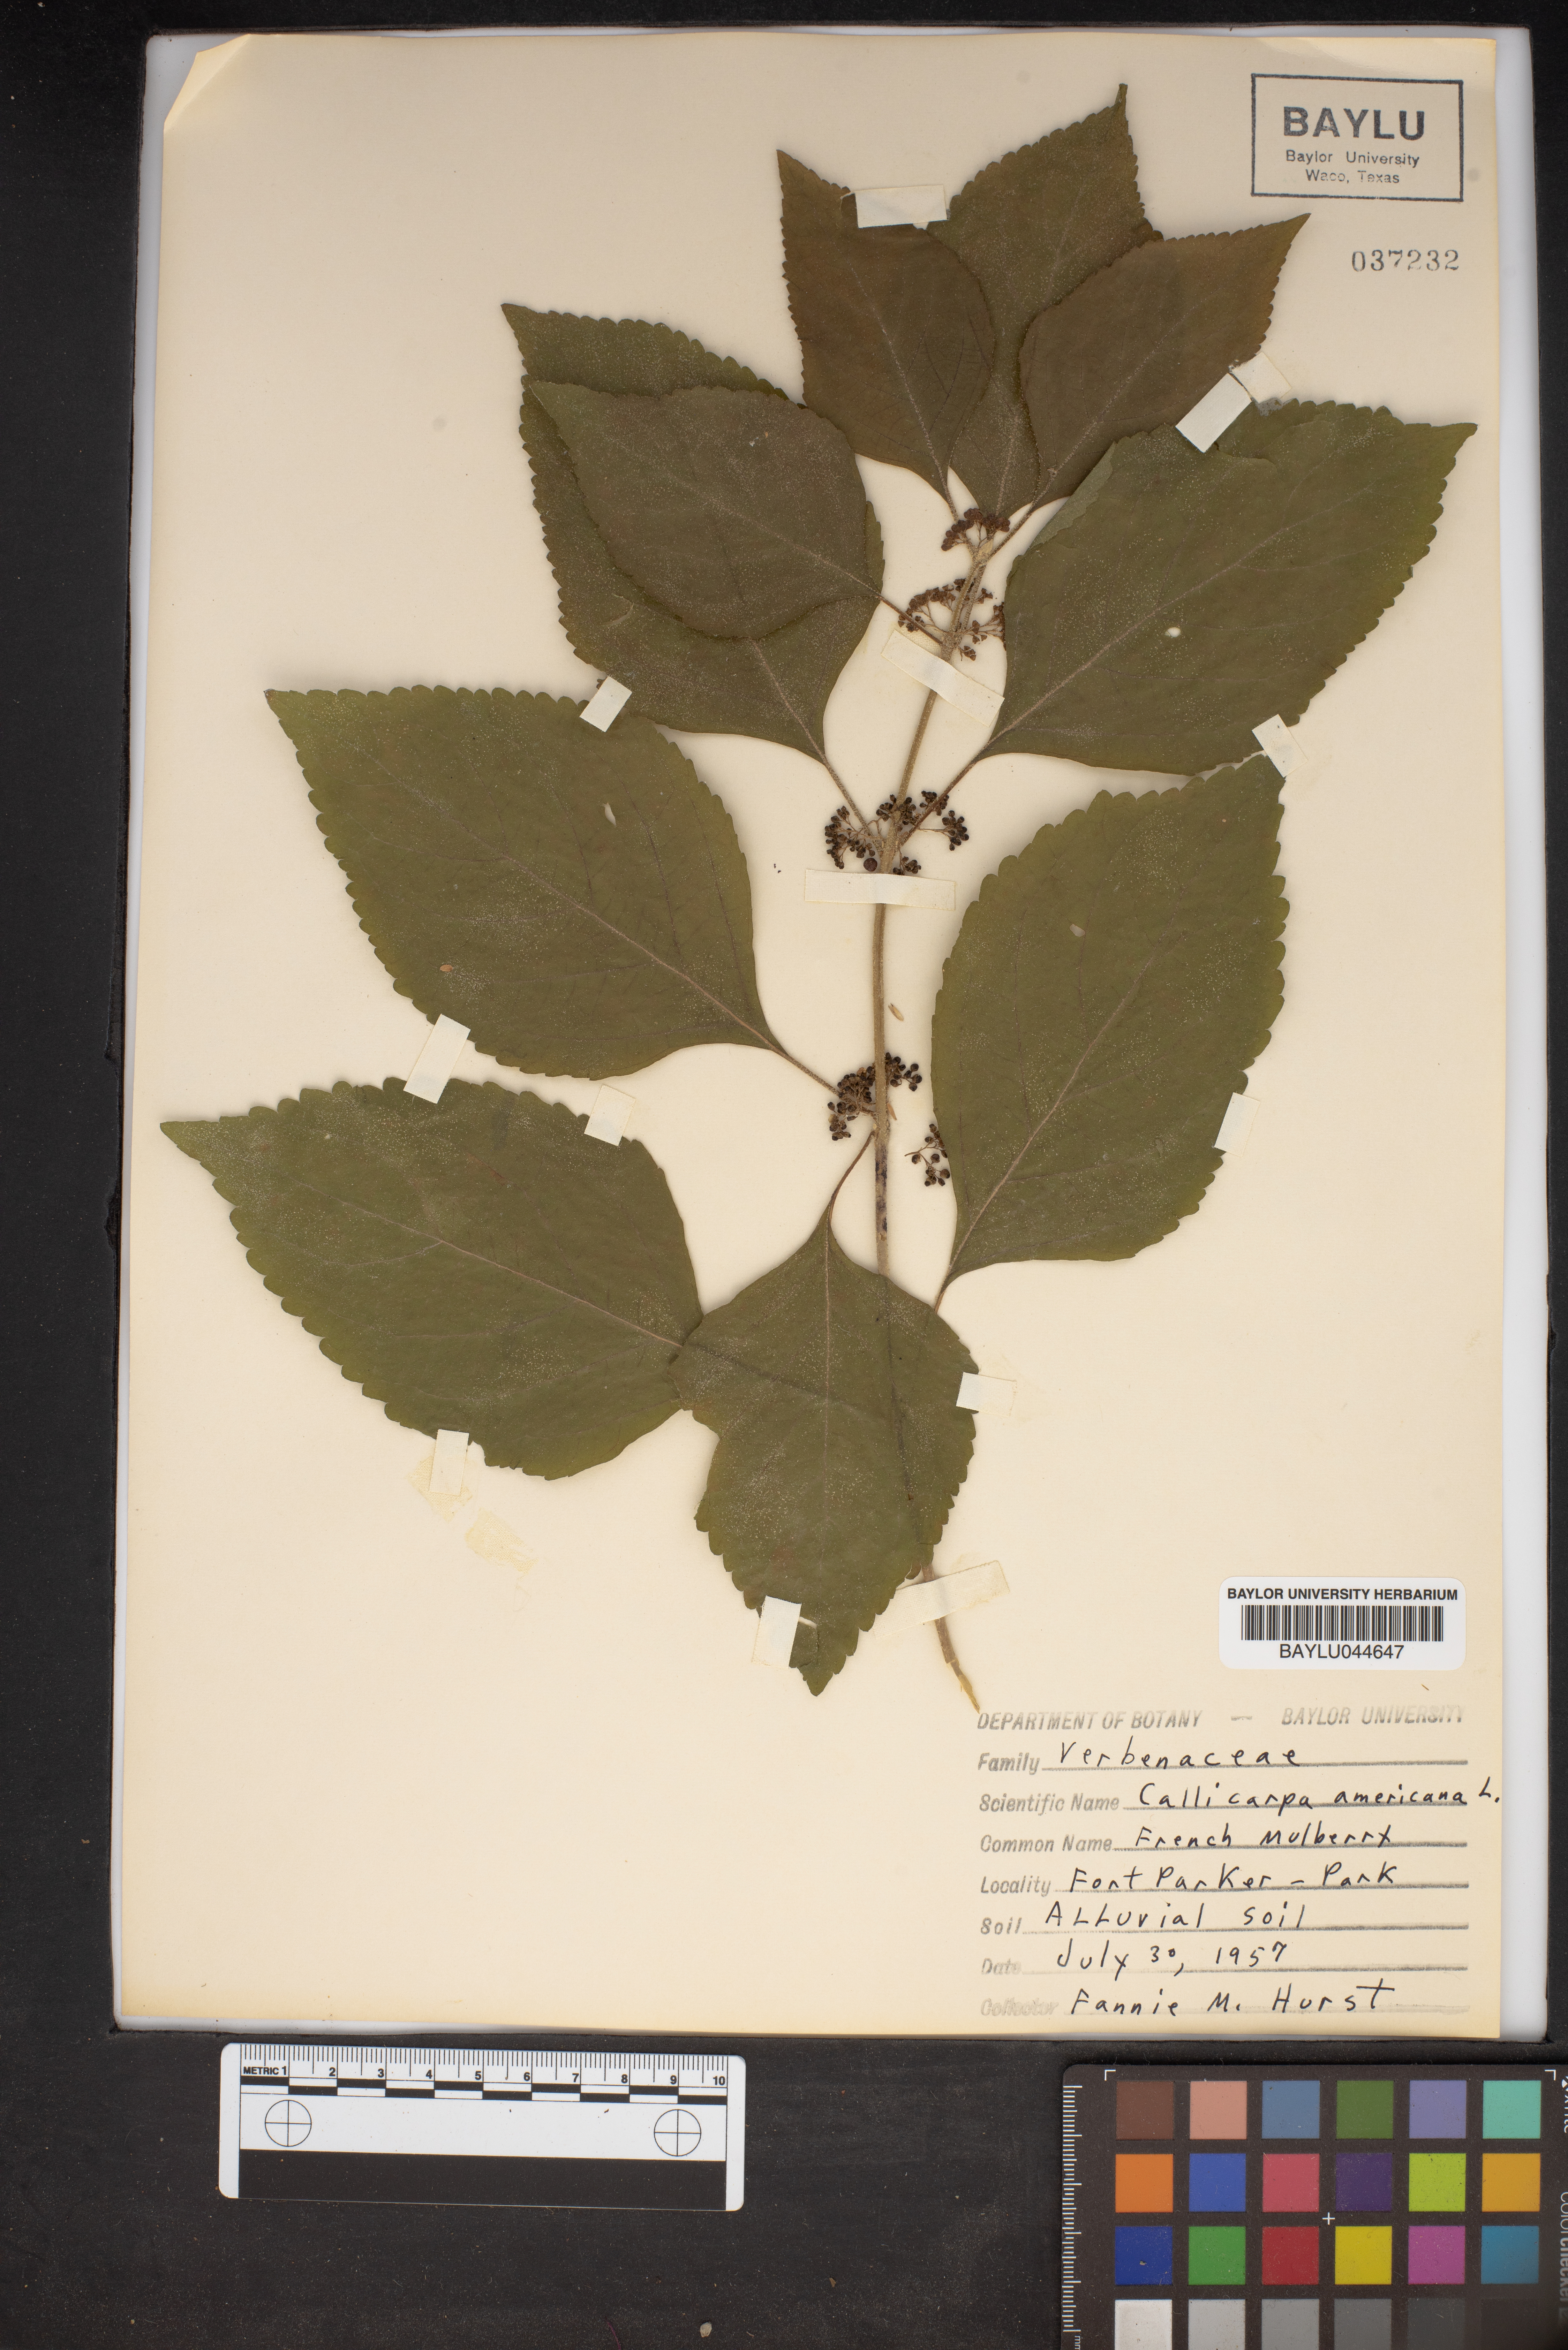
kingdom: Plantae
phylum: Tracheophyta
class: Magnoliopsida
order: Lamiales
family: Lamiaceae
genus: Callicarpa
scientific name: Callicarpa americana
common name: American beautyberry
